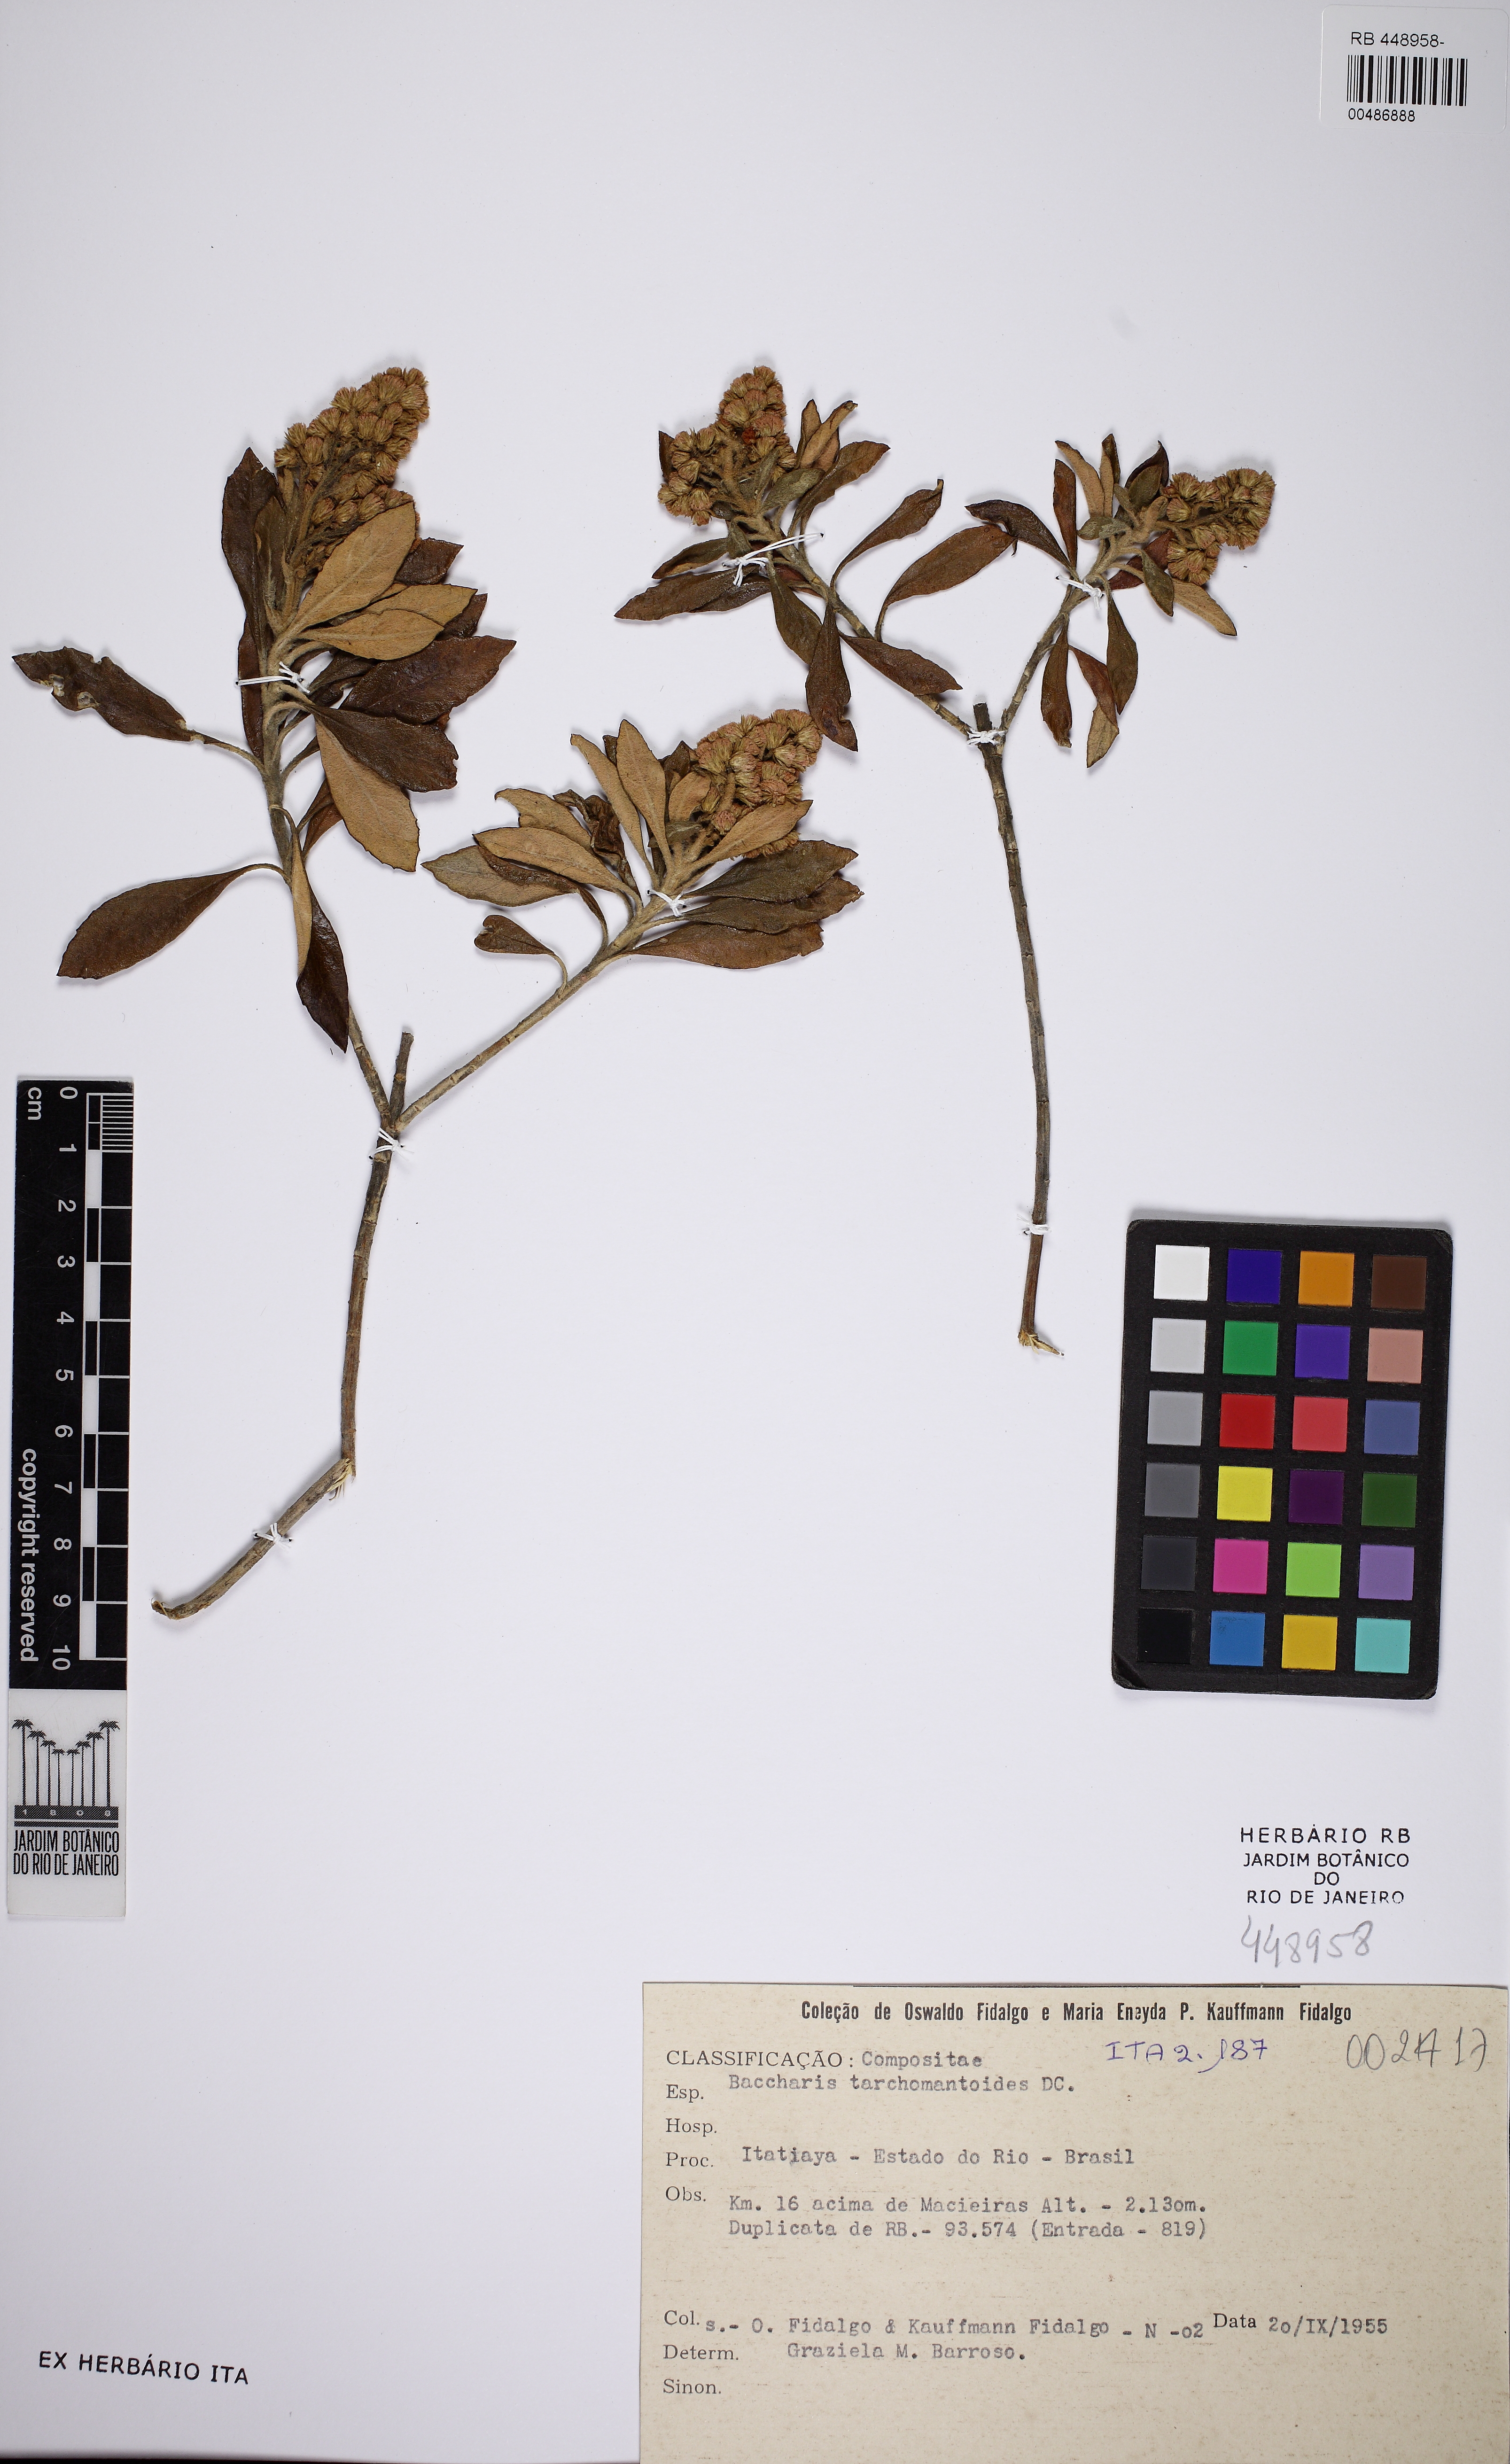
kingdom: Plantae
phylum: Tracheophyta
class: Magnoliopsida
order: Asterales
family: Asteraceae
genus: Baccharis
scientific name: Baccharis tarchonanthoides
